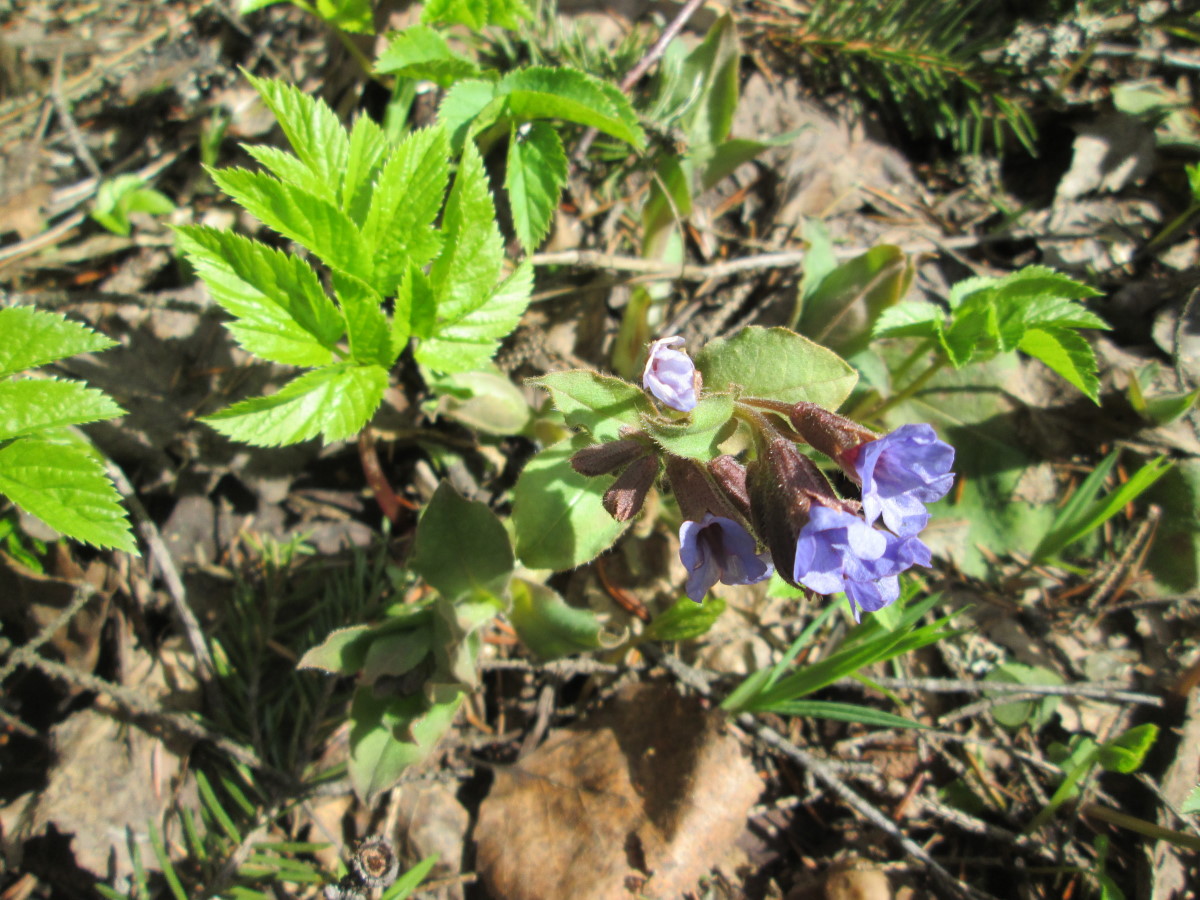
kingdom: Plantae
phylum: Tracheophyta
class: Magnoliopsida
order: Boraginales
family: Boraginaceae
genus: Pulmonaria
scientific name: Pulmonaria obscura
